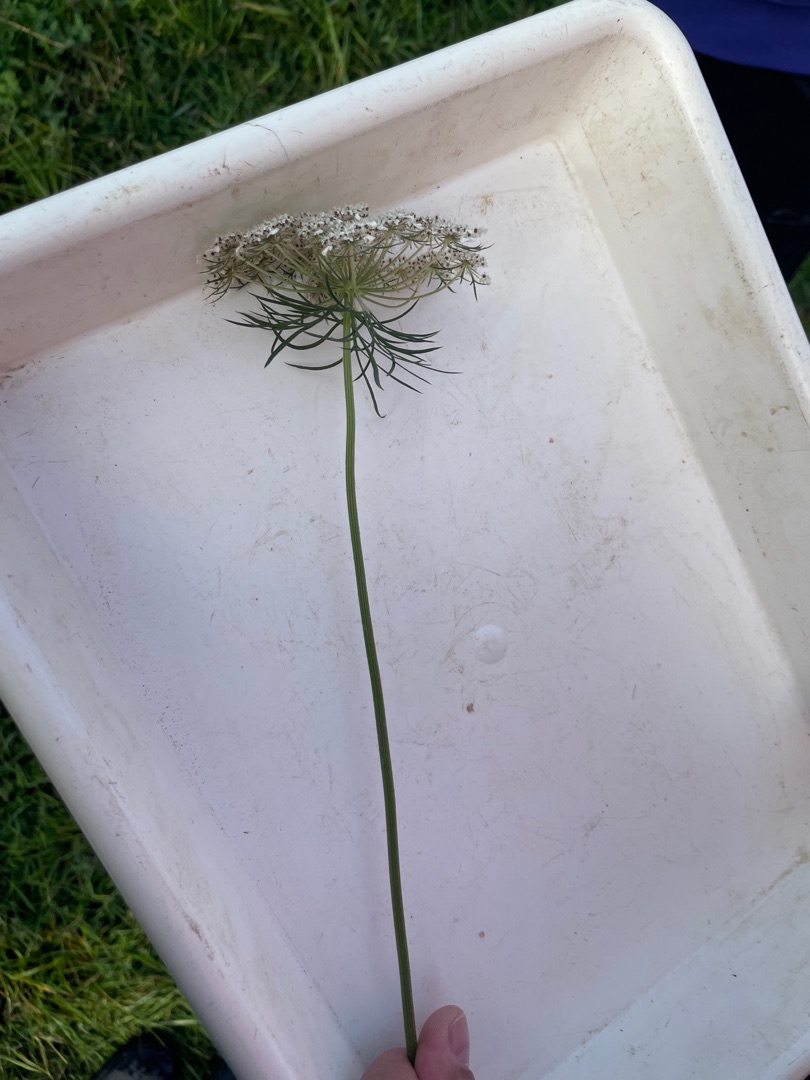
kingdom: Plantae
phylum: Tracheophyta
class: Magnoliopsida
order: Apiales
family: Apiaceae
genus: Daucus
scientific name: Daucus carota
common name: Gulerod
